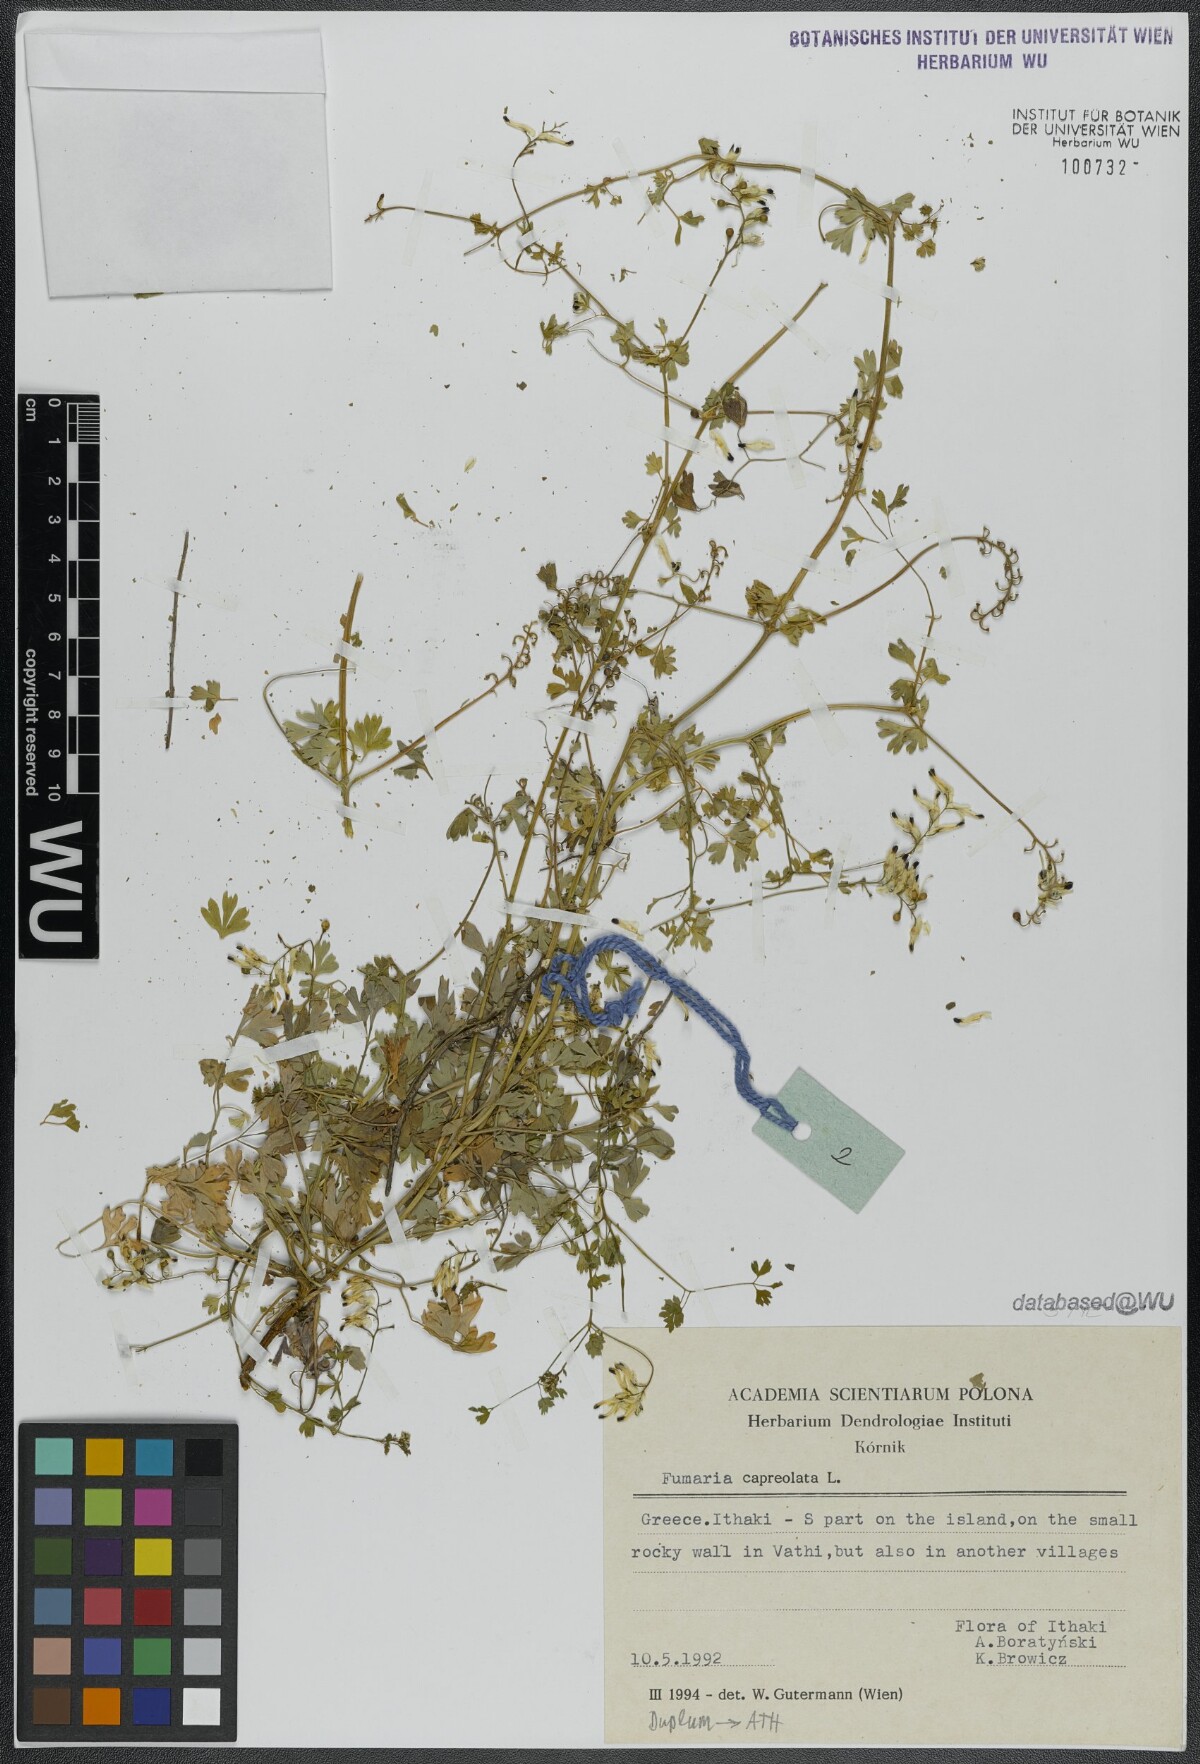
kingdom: Plantae
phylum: Tracheophyta
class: Magnoliopsida
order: Ranunculales
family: Papaveraceae
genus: Fumaria
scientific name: Fumaria capreolata
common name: White ramping-fumitory
